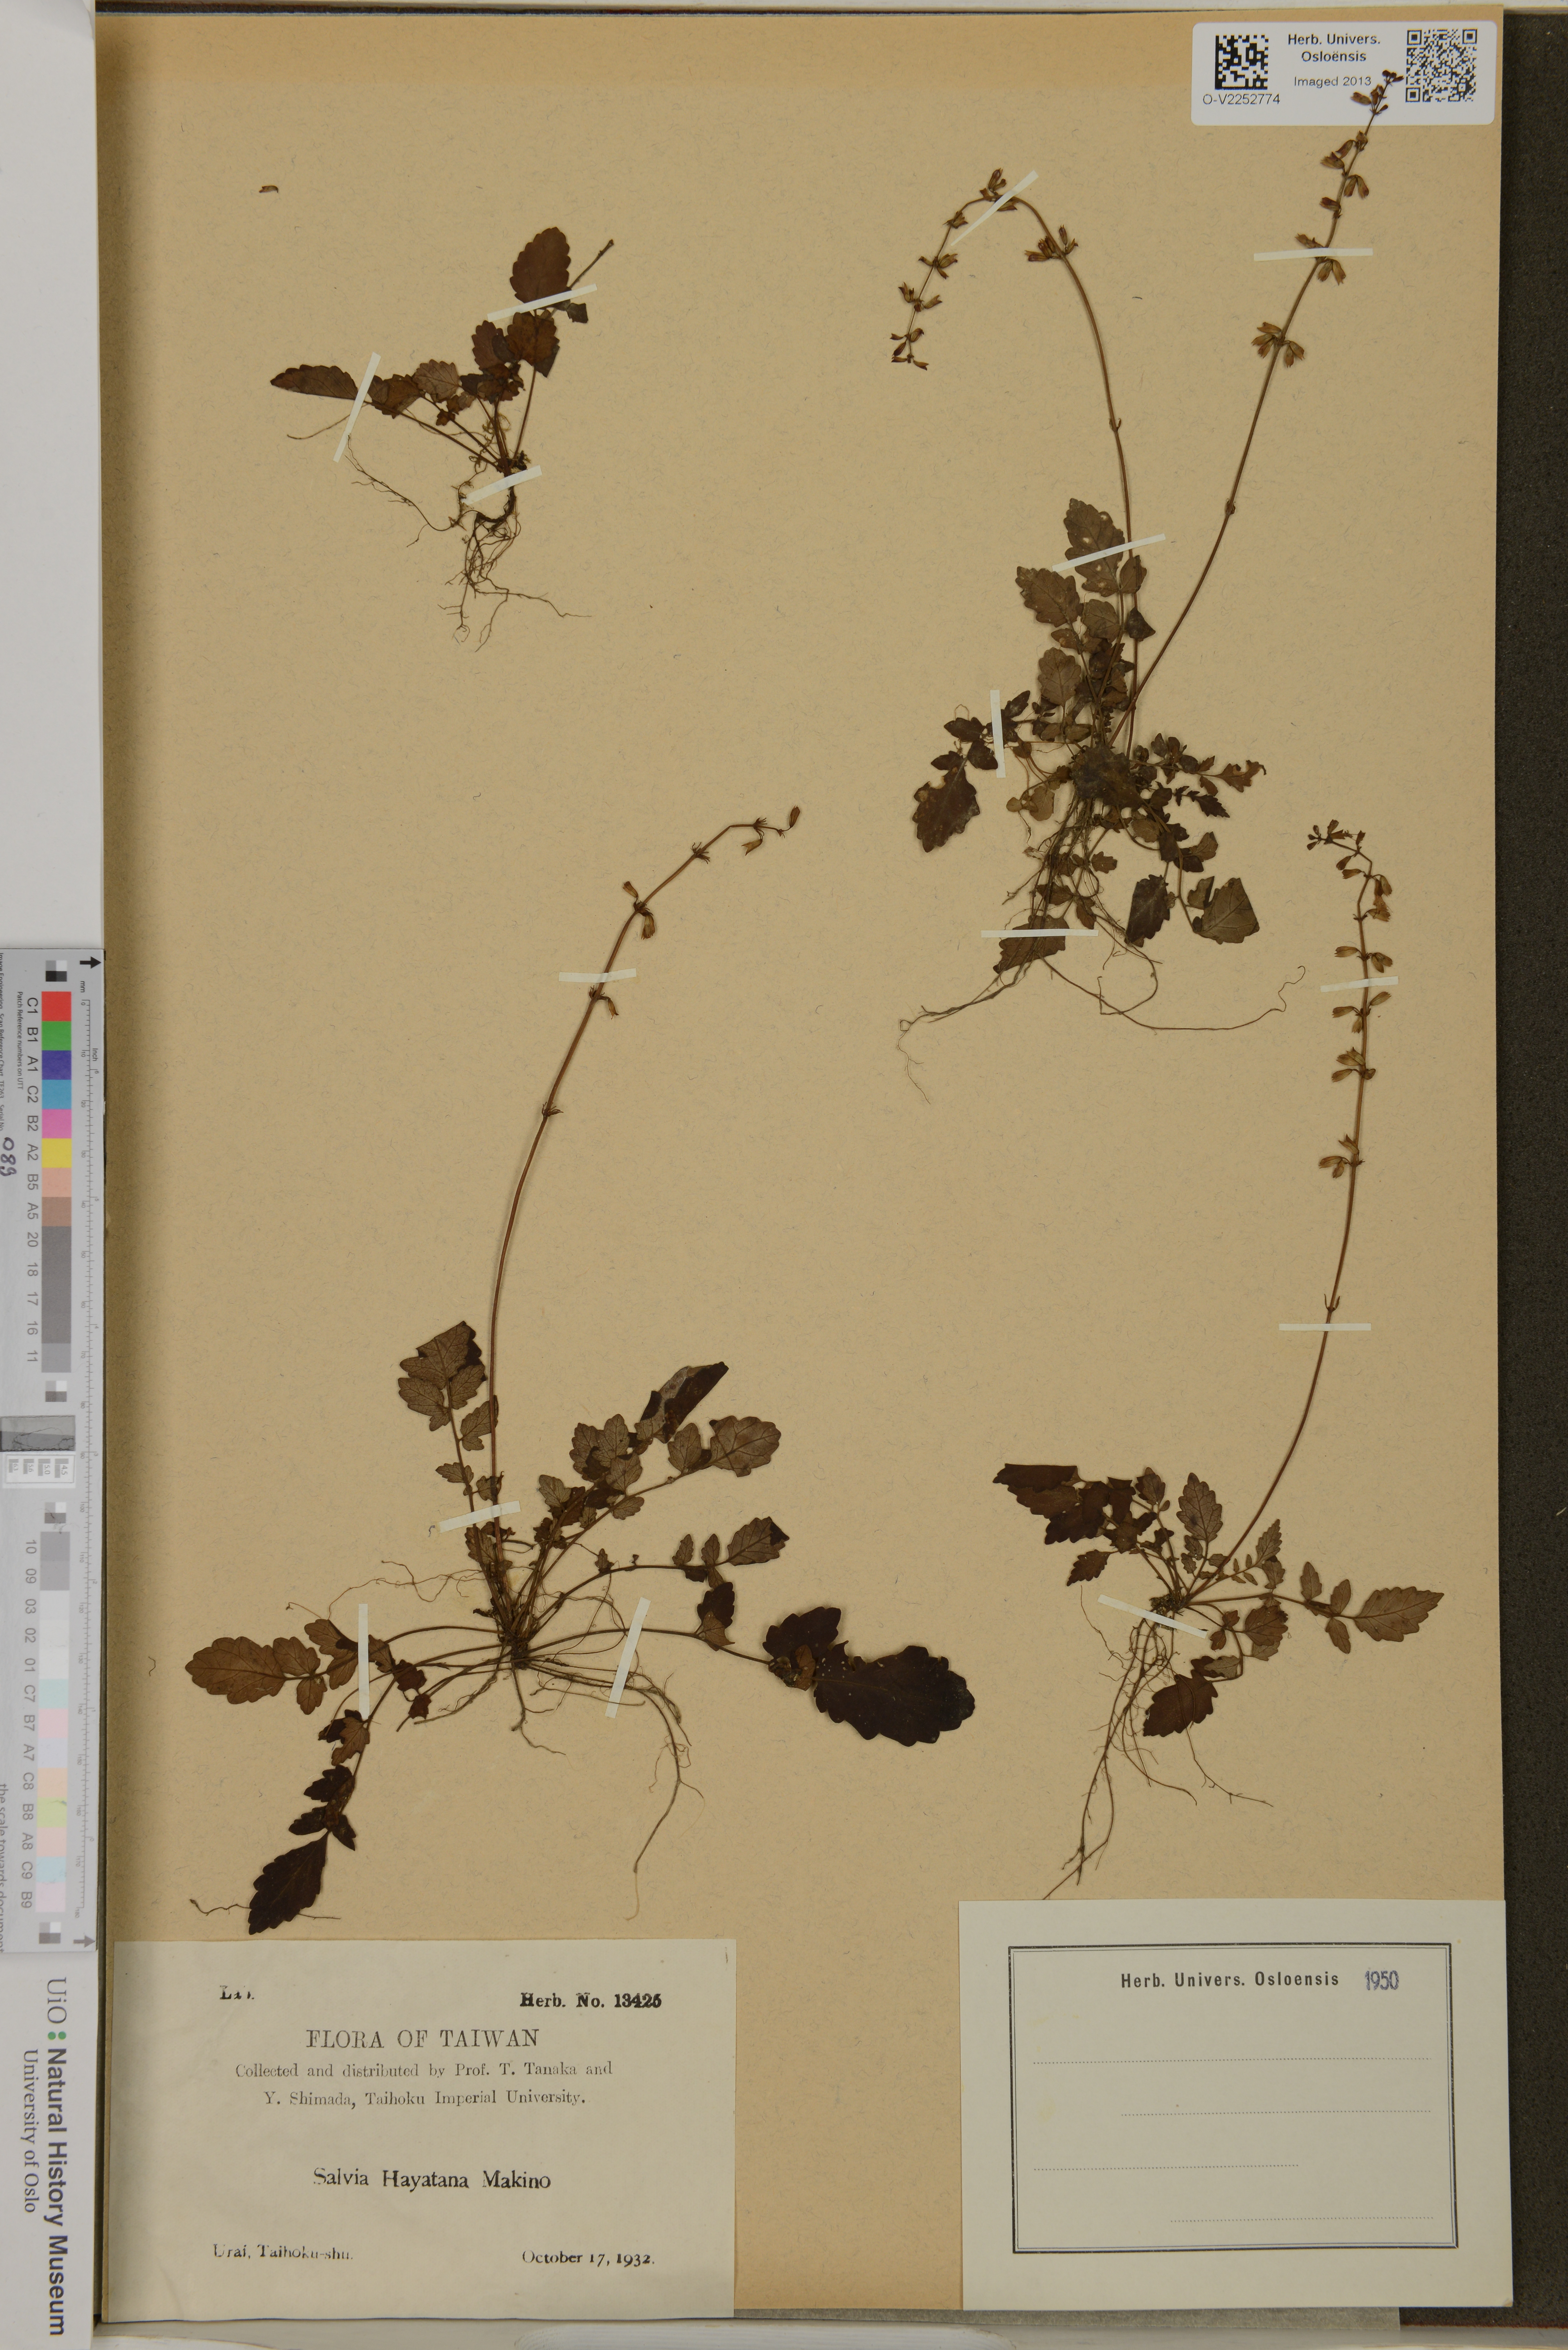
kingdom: Plantae
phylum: Tracheophyta
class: Magnoliopsida
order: Lamiales
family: Lamiaceae
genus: Salvia
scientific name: Salvia hayatae
